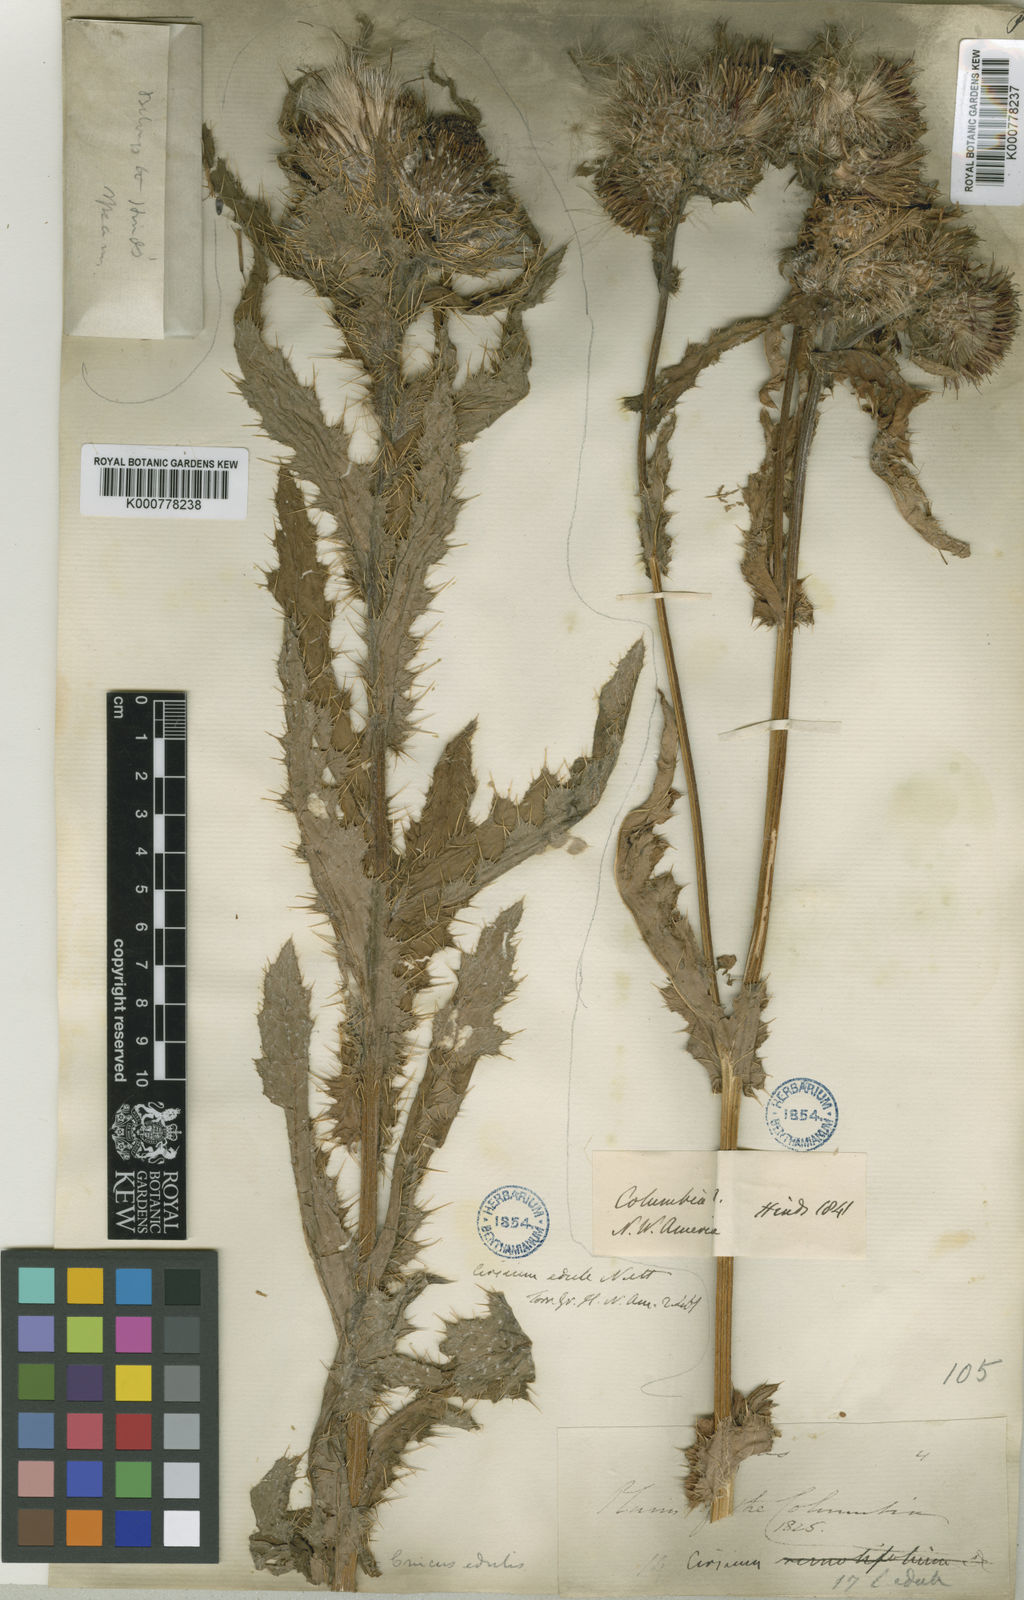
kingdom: Plantae
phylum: Tracheophyta
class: Magnoliopsida
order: Asterales
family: Asteraceae
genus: Cirsium
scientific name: Cirsium
